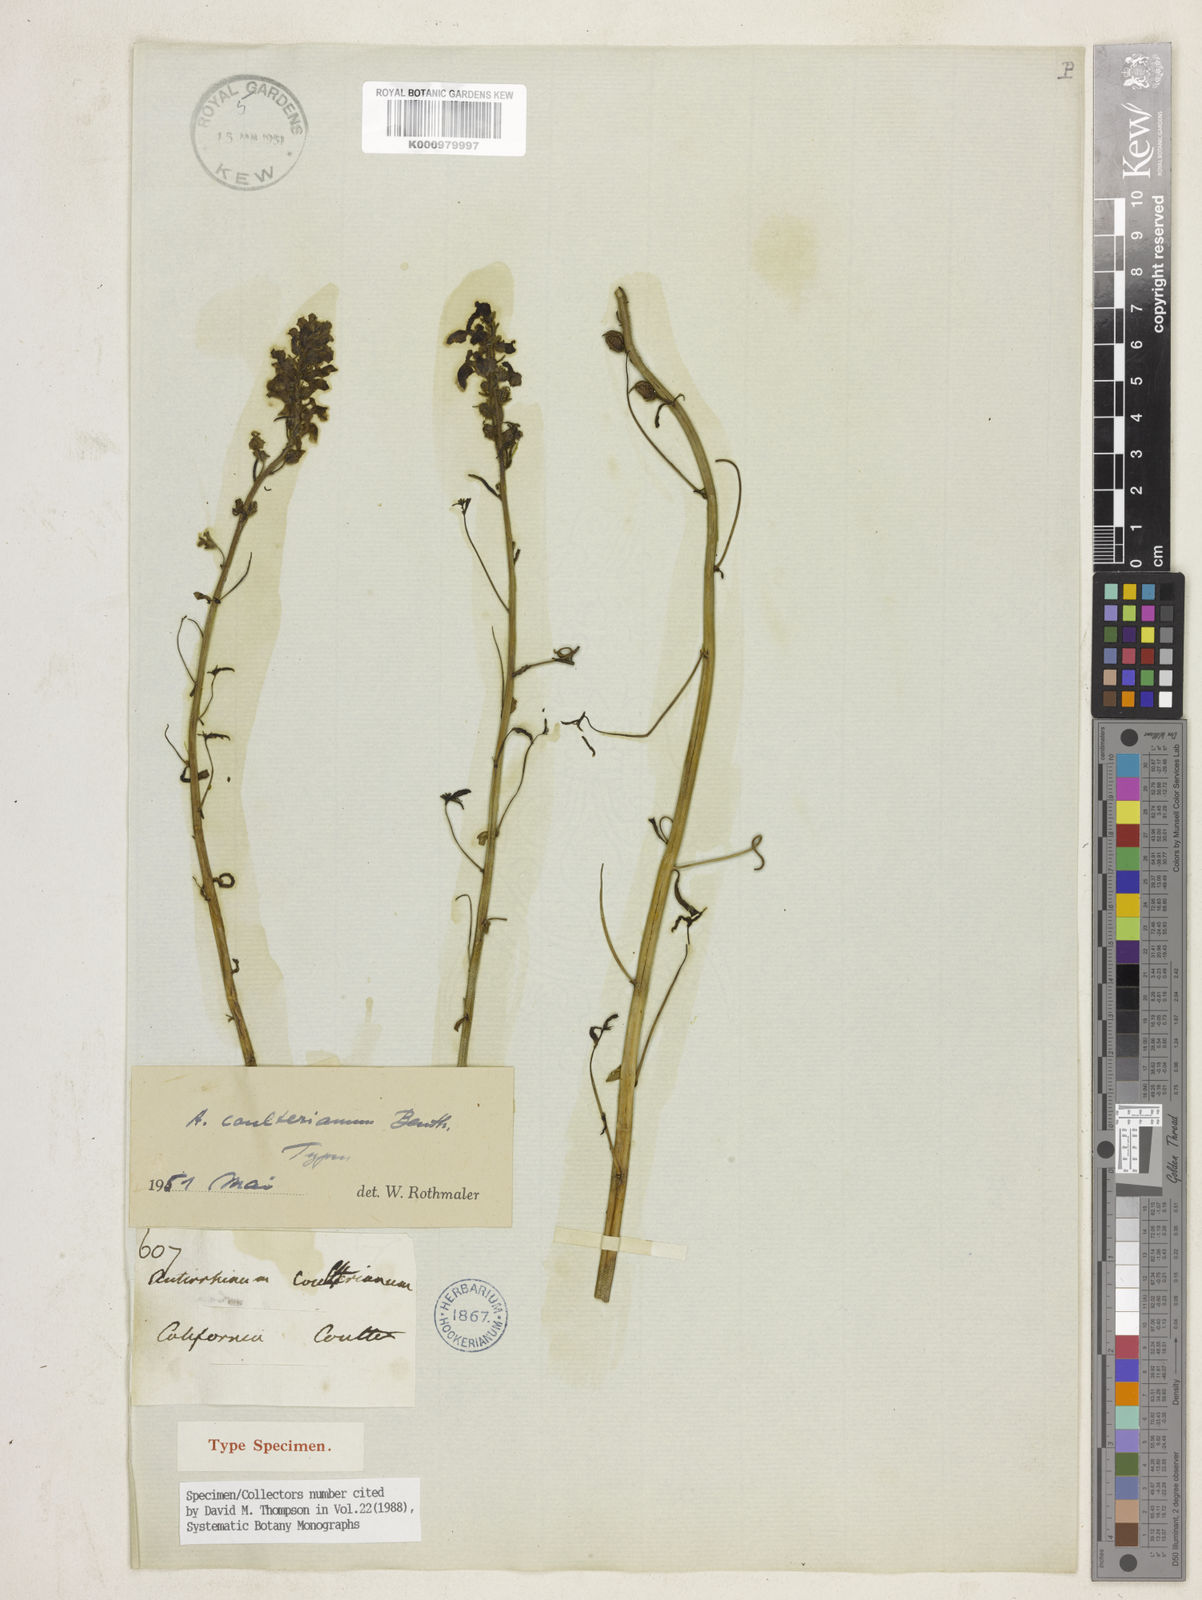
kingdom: Plantae
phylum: Tracheophyta
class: Magnoliopsida
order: Lamiales
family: Plantaginaceae
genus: Antirrhinum
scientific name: Antirrhinum
